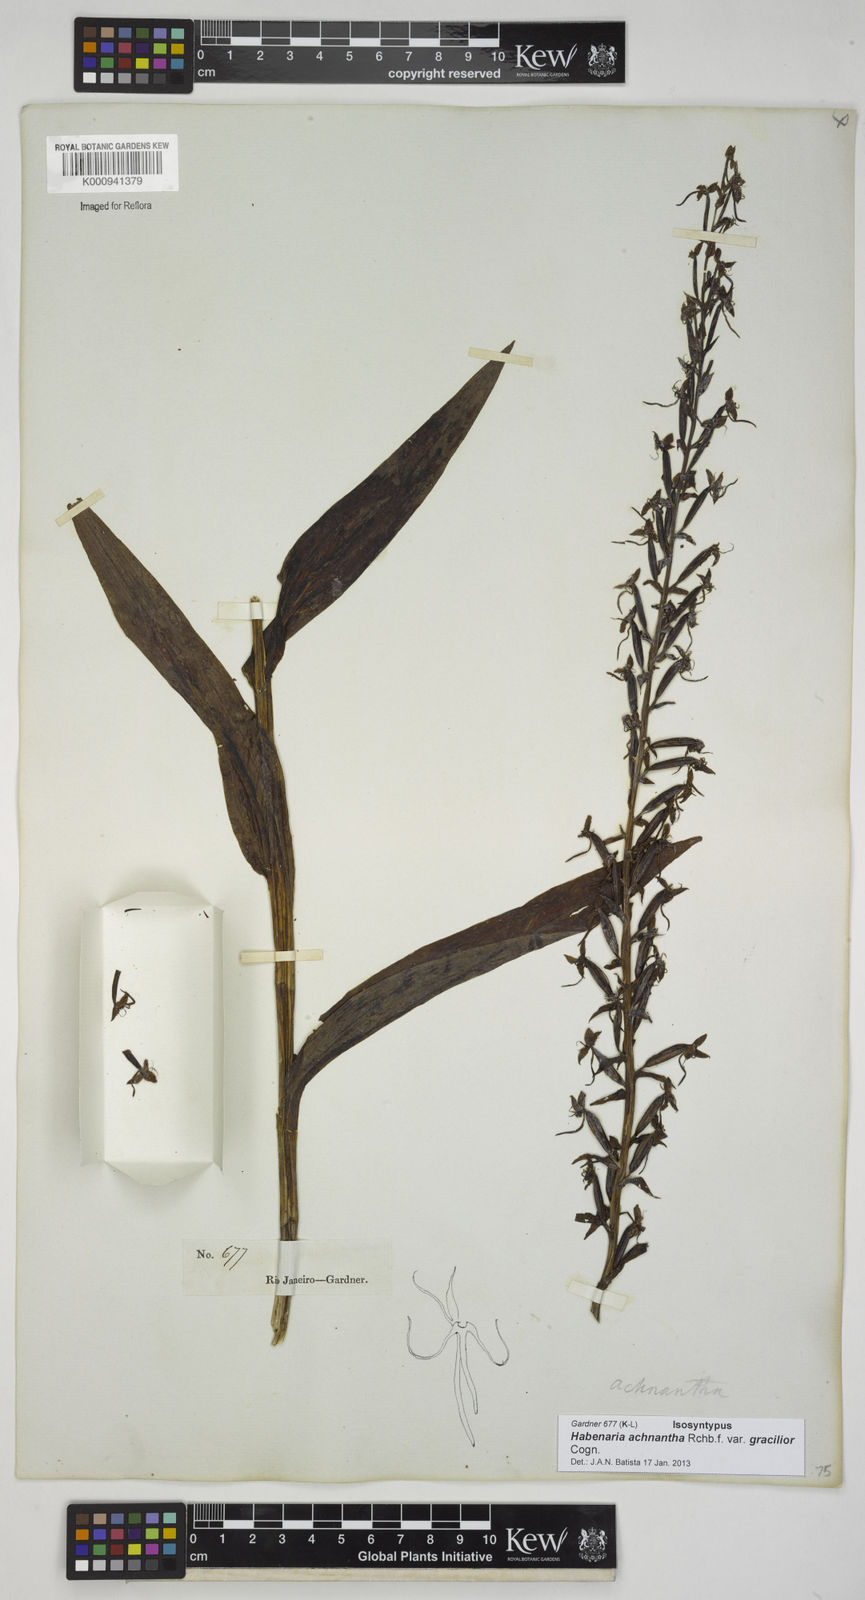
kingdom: Plantae
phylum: Tracheophyta
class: Liliopsida
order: Asparagales
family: Orchidaceae
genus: Habenaria
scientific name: Habenaria achnantha
